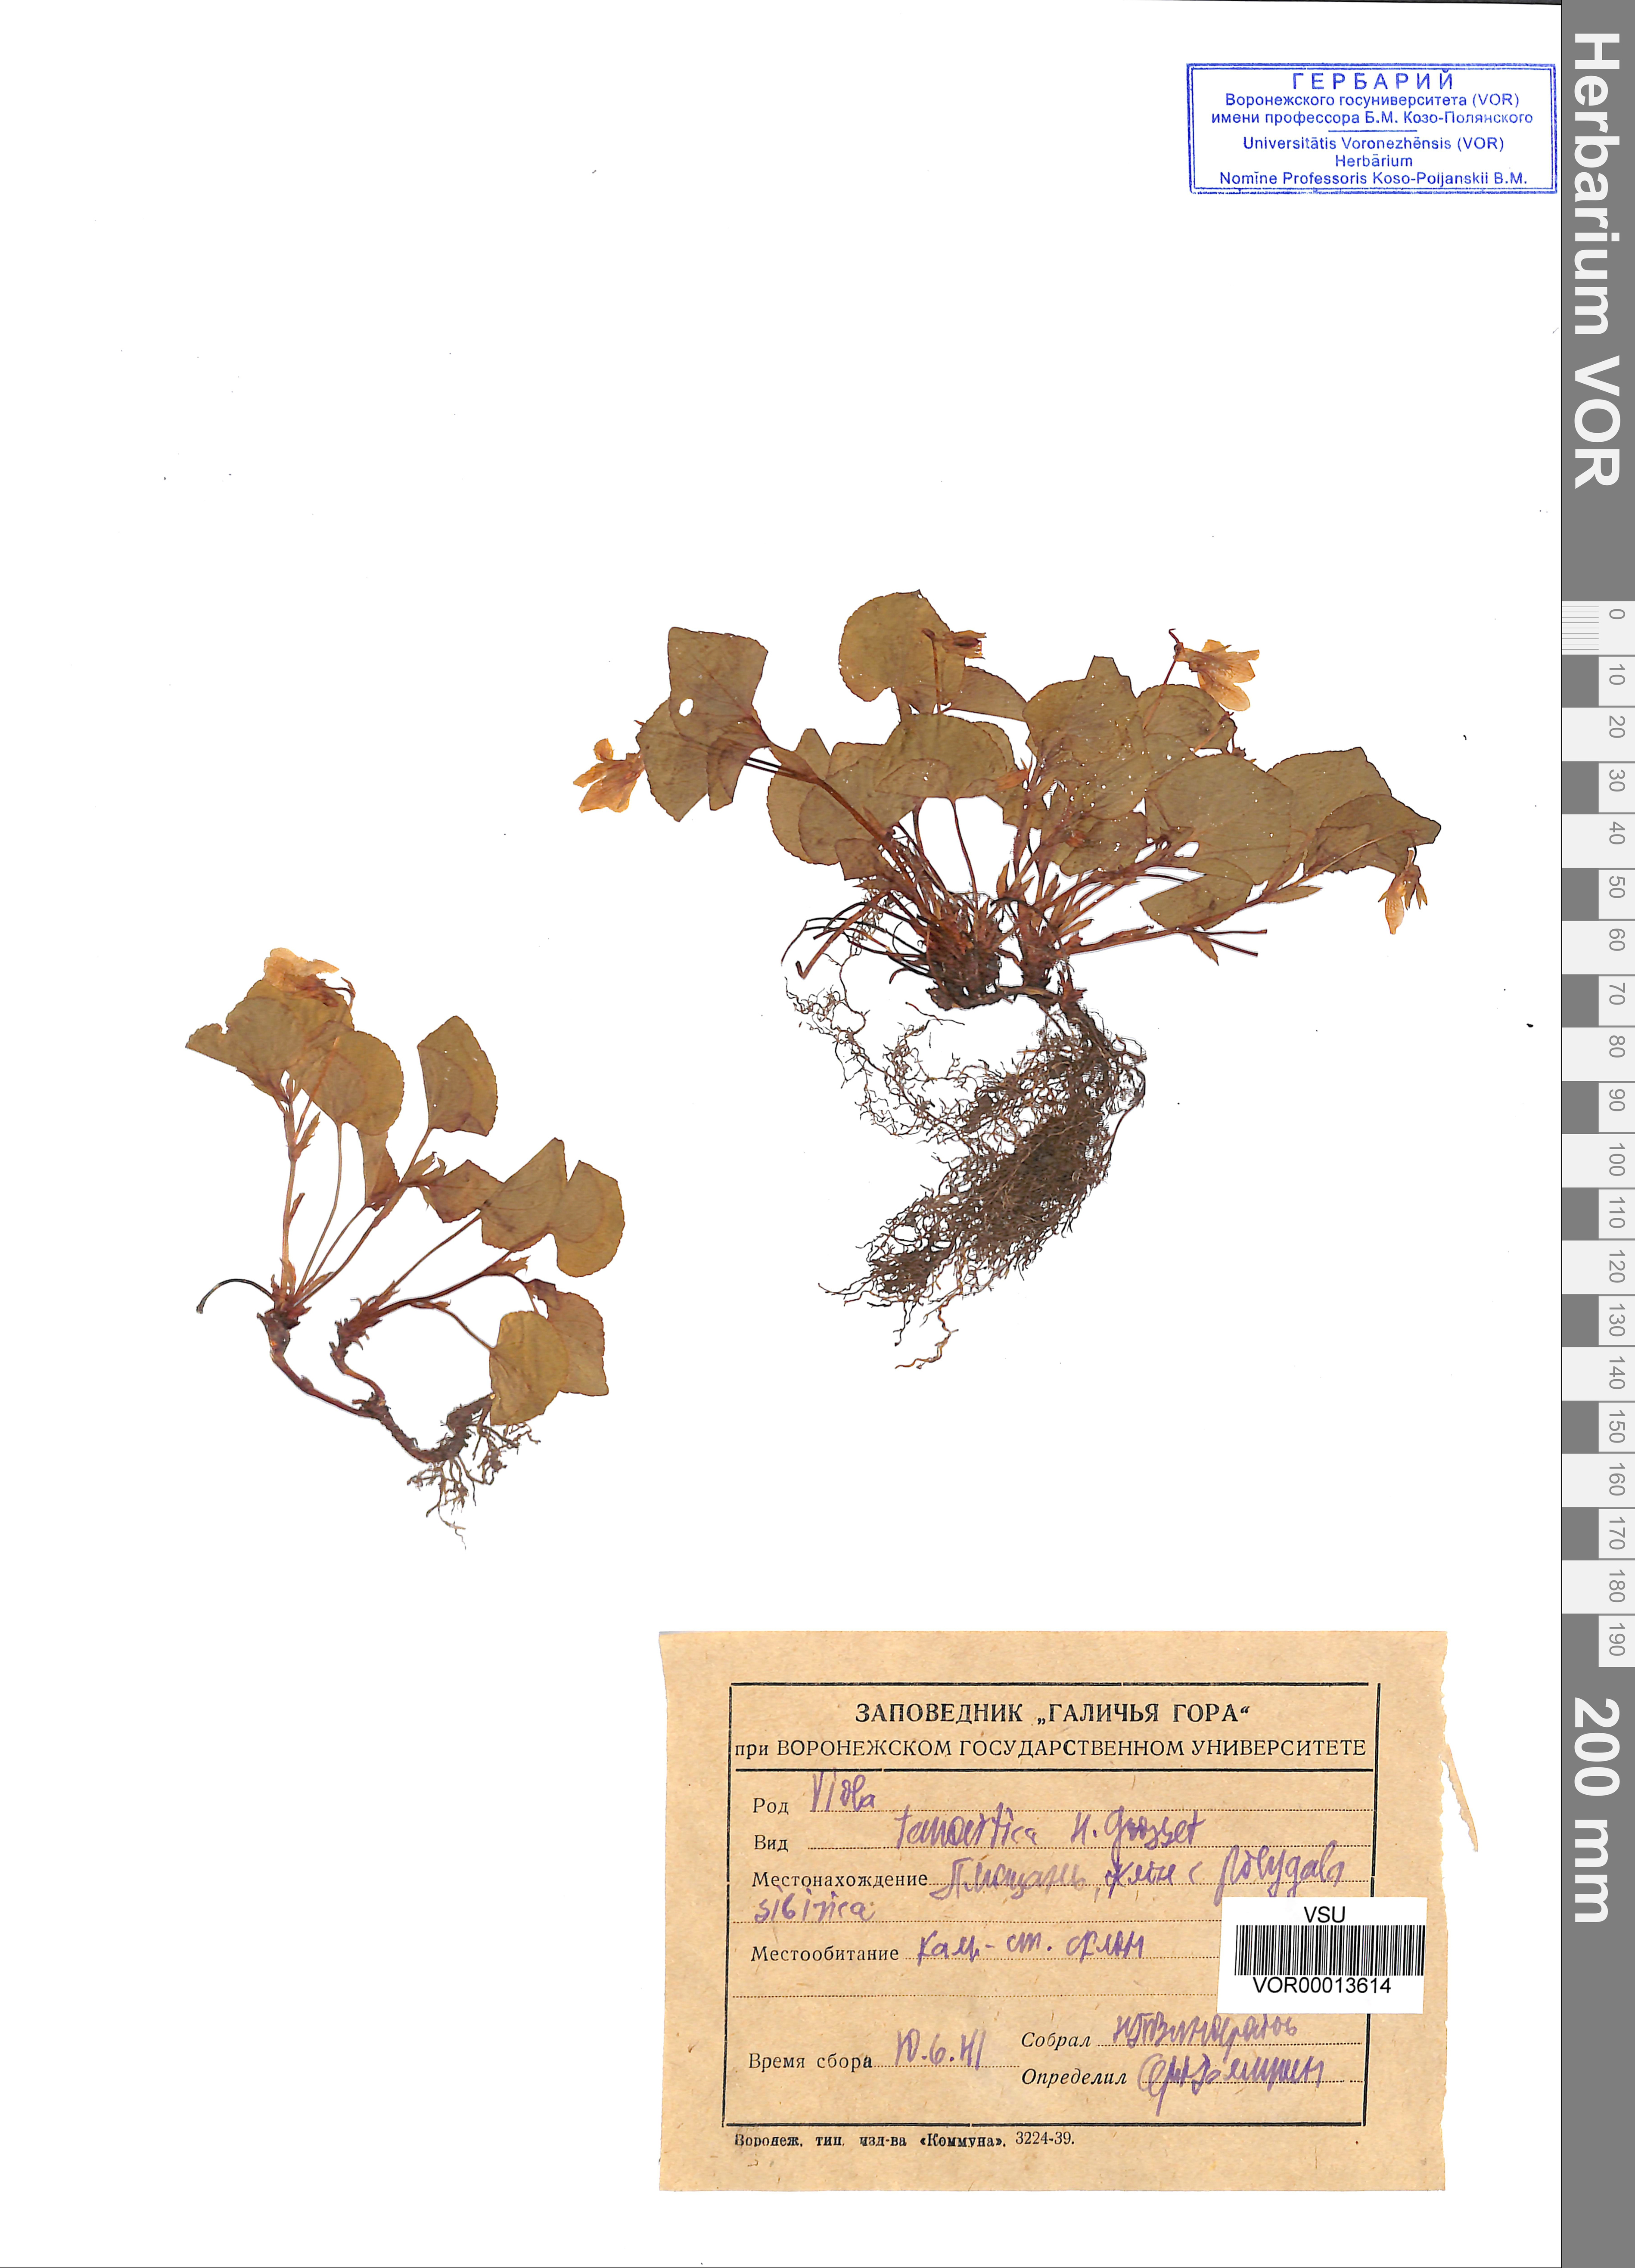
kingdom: Plantae
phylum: Tracheophyta
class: Magnoliopsida
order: Malpighiales
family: Violaceae
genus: Viola
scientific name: Viola tanaitica
